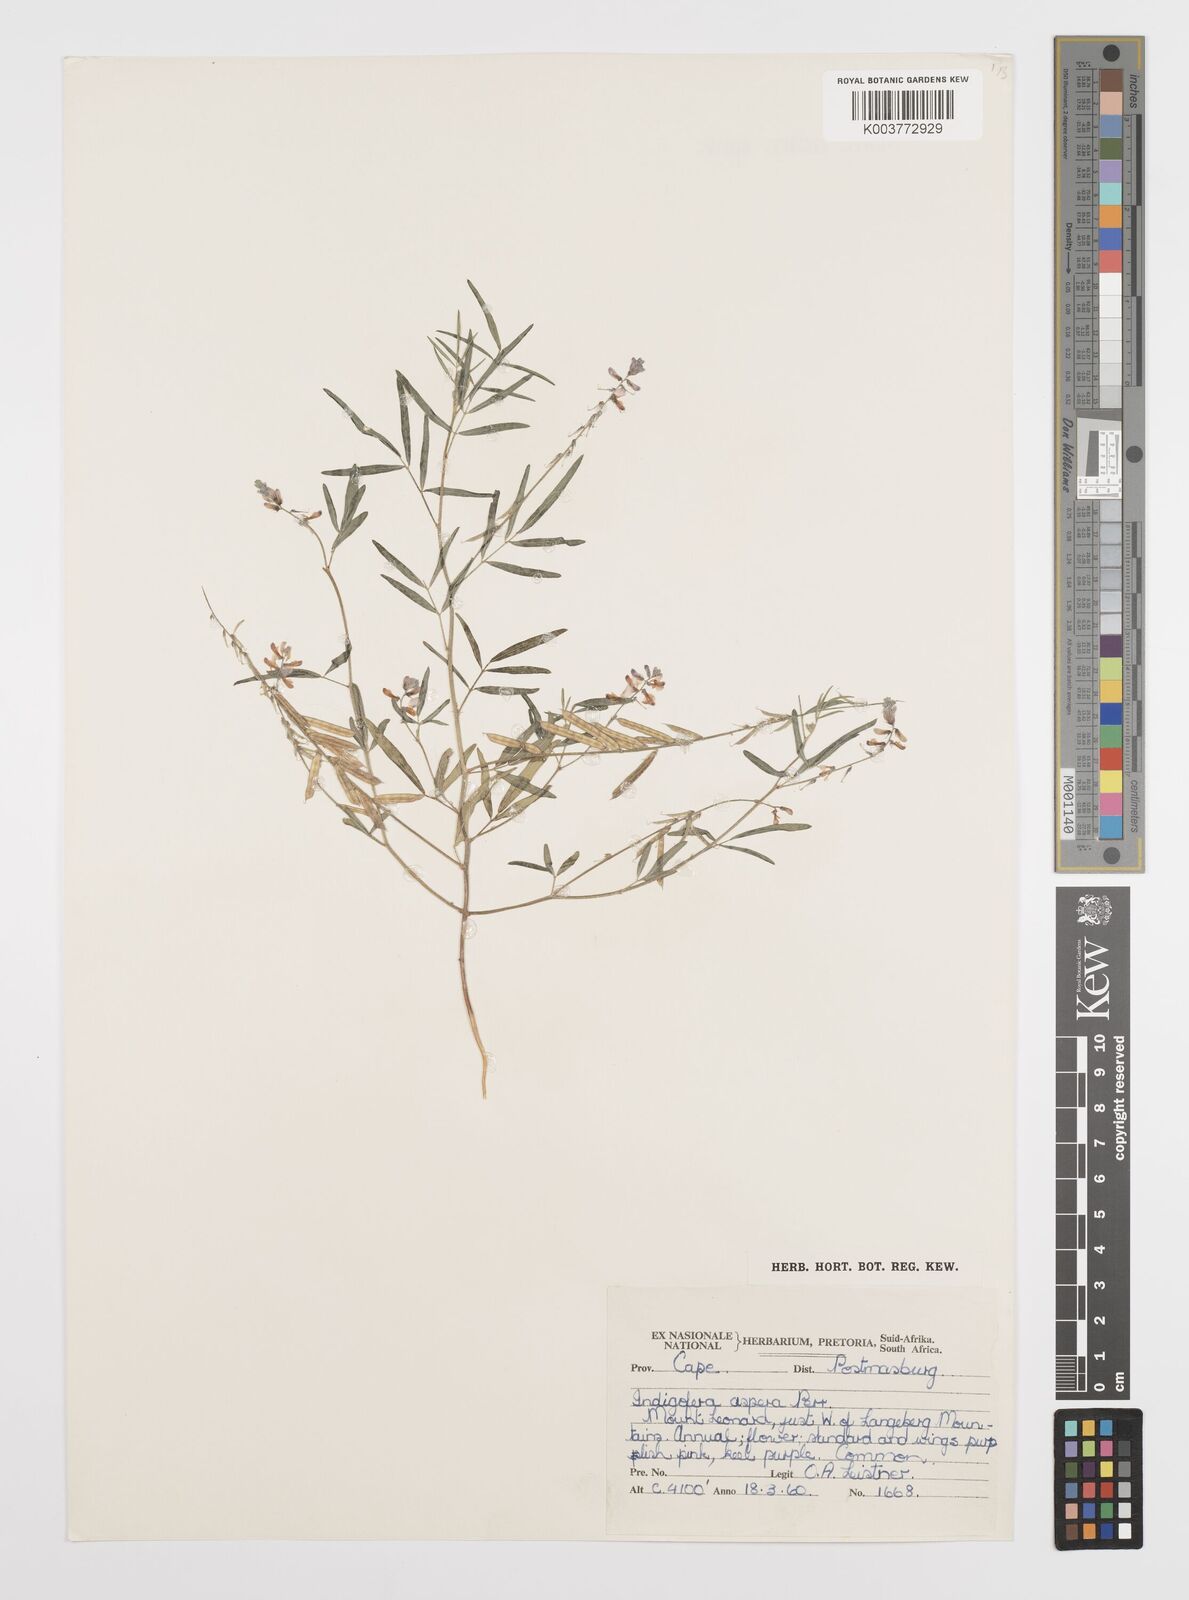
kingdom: Plantae
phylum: Tracheophyta
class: Magnoliopsida
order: Fabales
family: Fabaceae
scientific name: Fabaceae
